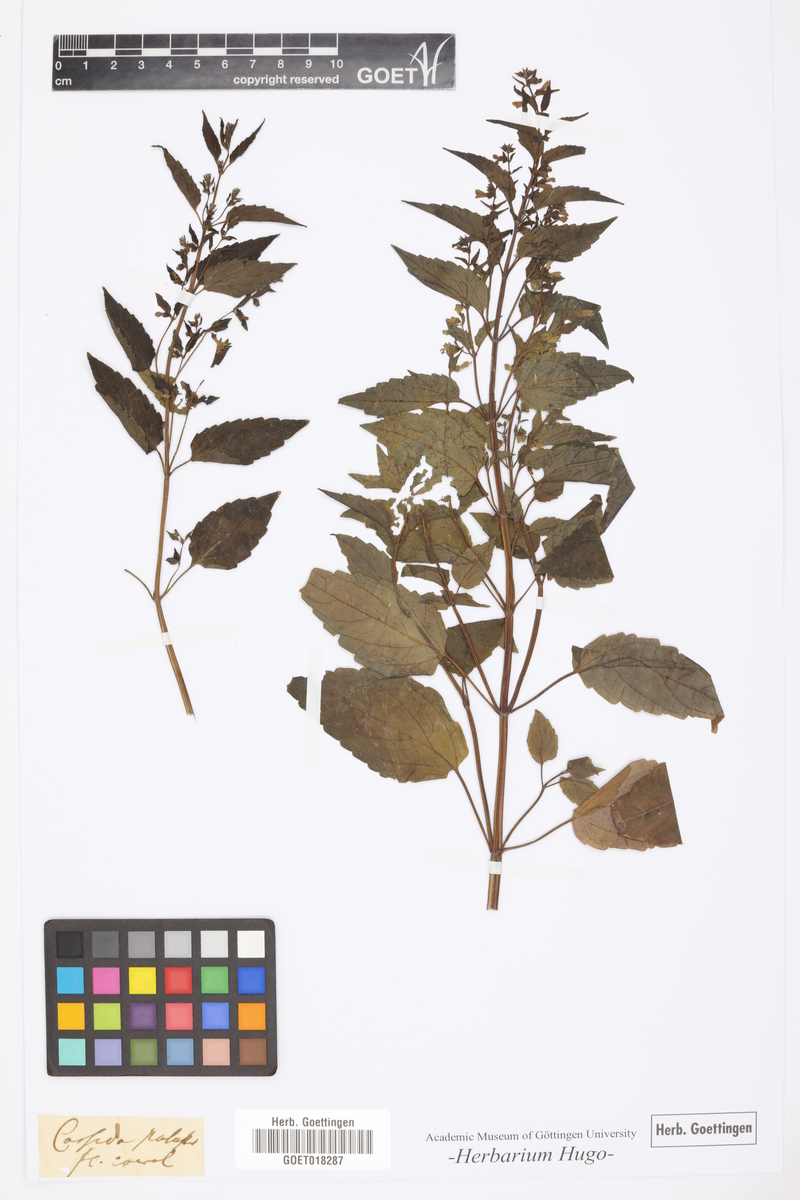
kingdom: Plantae
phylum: Tracheophyta
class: Magnoliopsida
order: Lamiales
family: Lamiaceae
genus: Cassida
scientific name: Cassida
